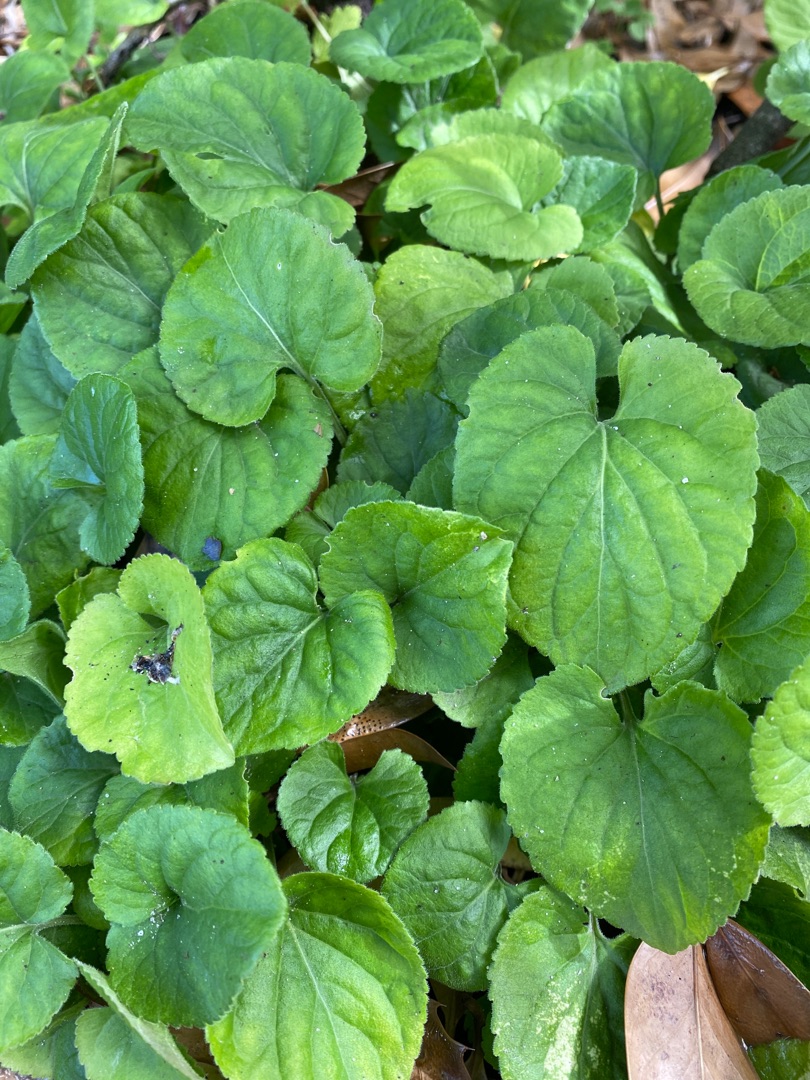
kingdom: Plantae
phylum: Tracheophyta
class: Magnoliopsida
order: Malpighiales
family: Violaceae
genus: Viola
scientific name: Viola odorata
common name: Marts-viol
